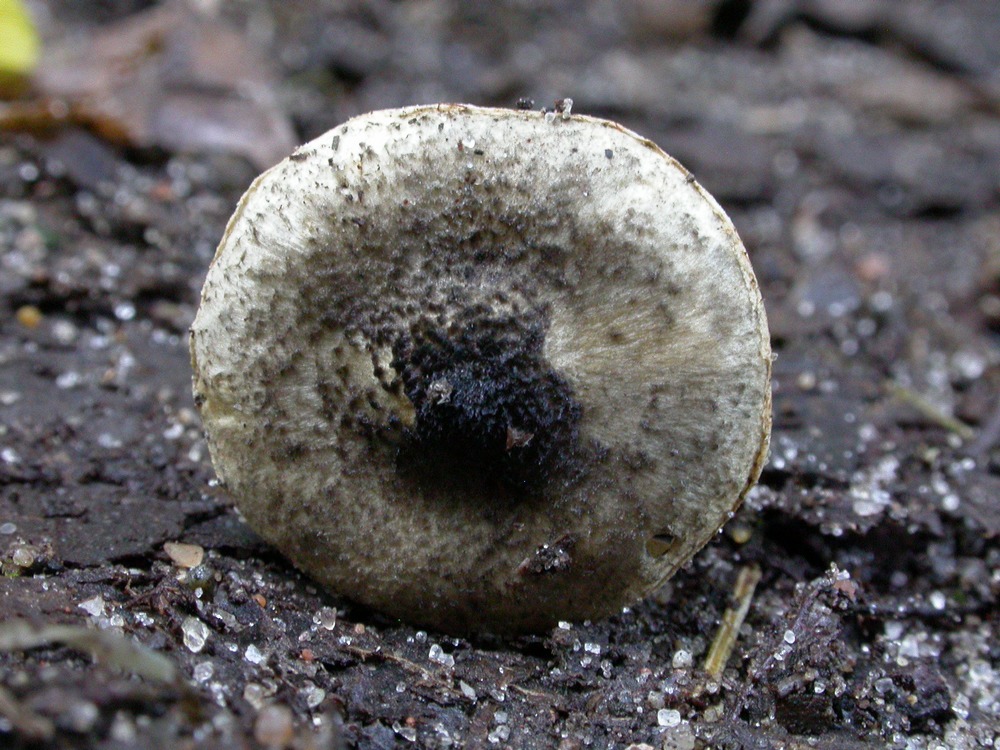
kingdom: Fungi
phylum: Basidiomycota
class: Agaricomycetes
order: Agaricales
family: Agaricaceae
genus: Lepiota
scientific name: Lepiota griseovirens
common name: grågrøn parasolhat
